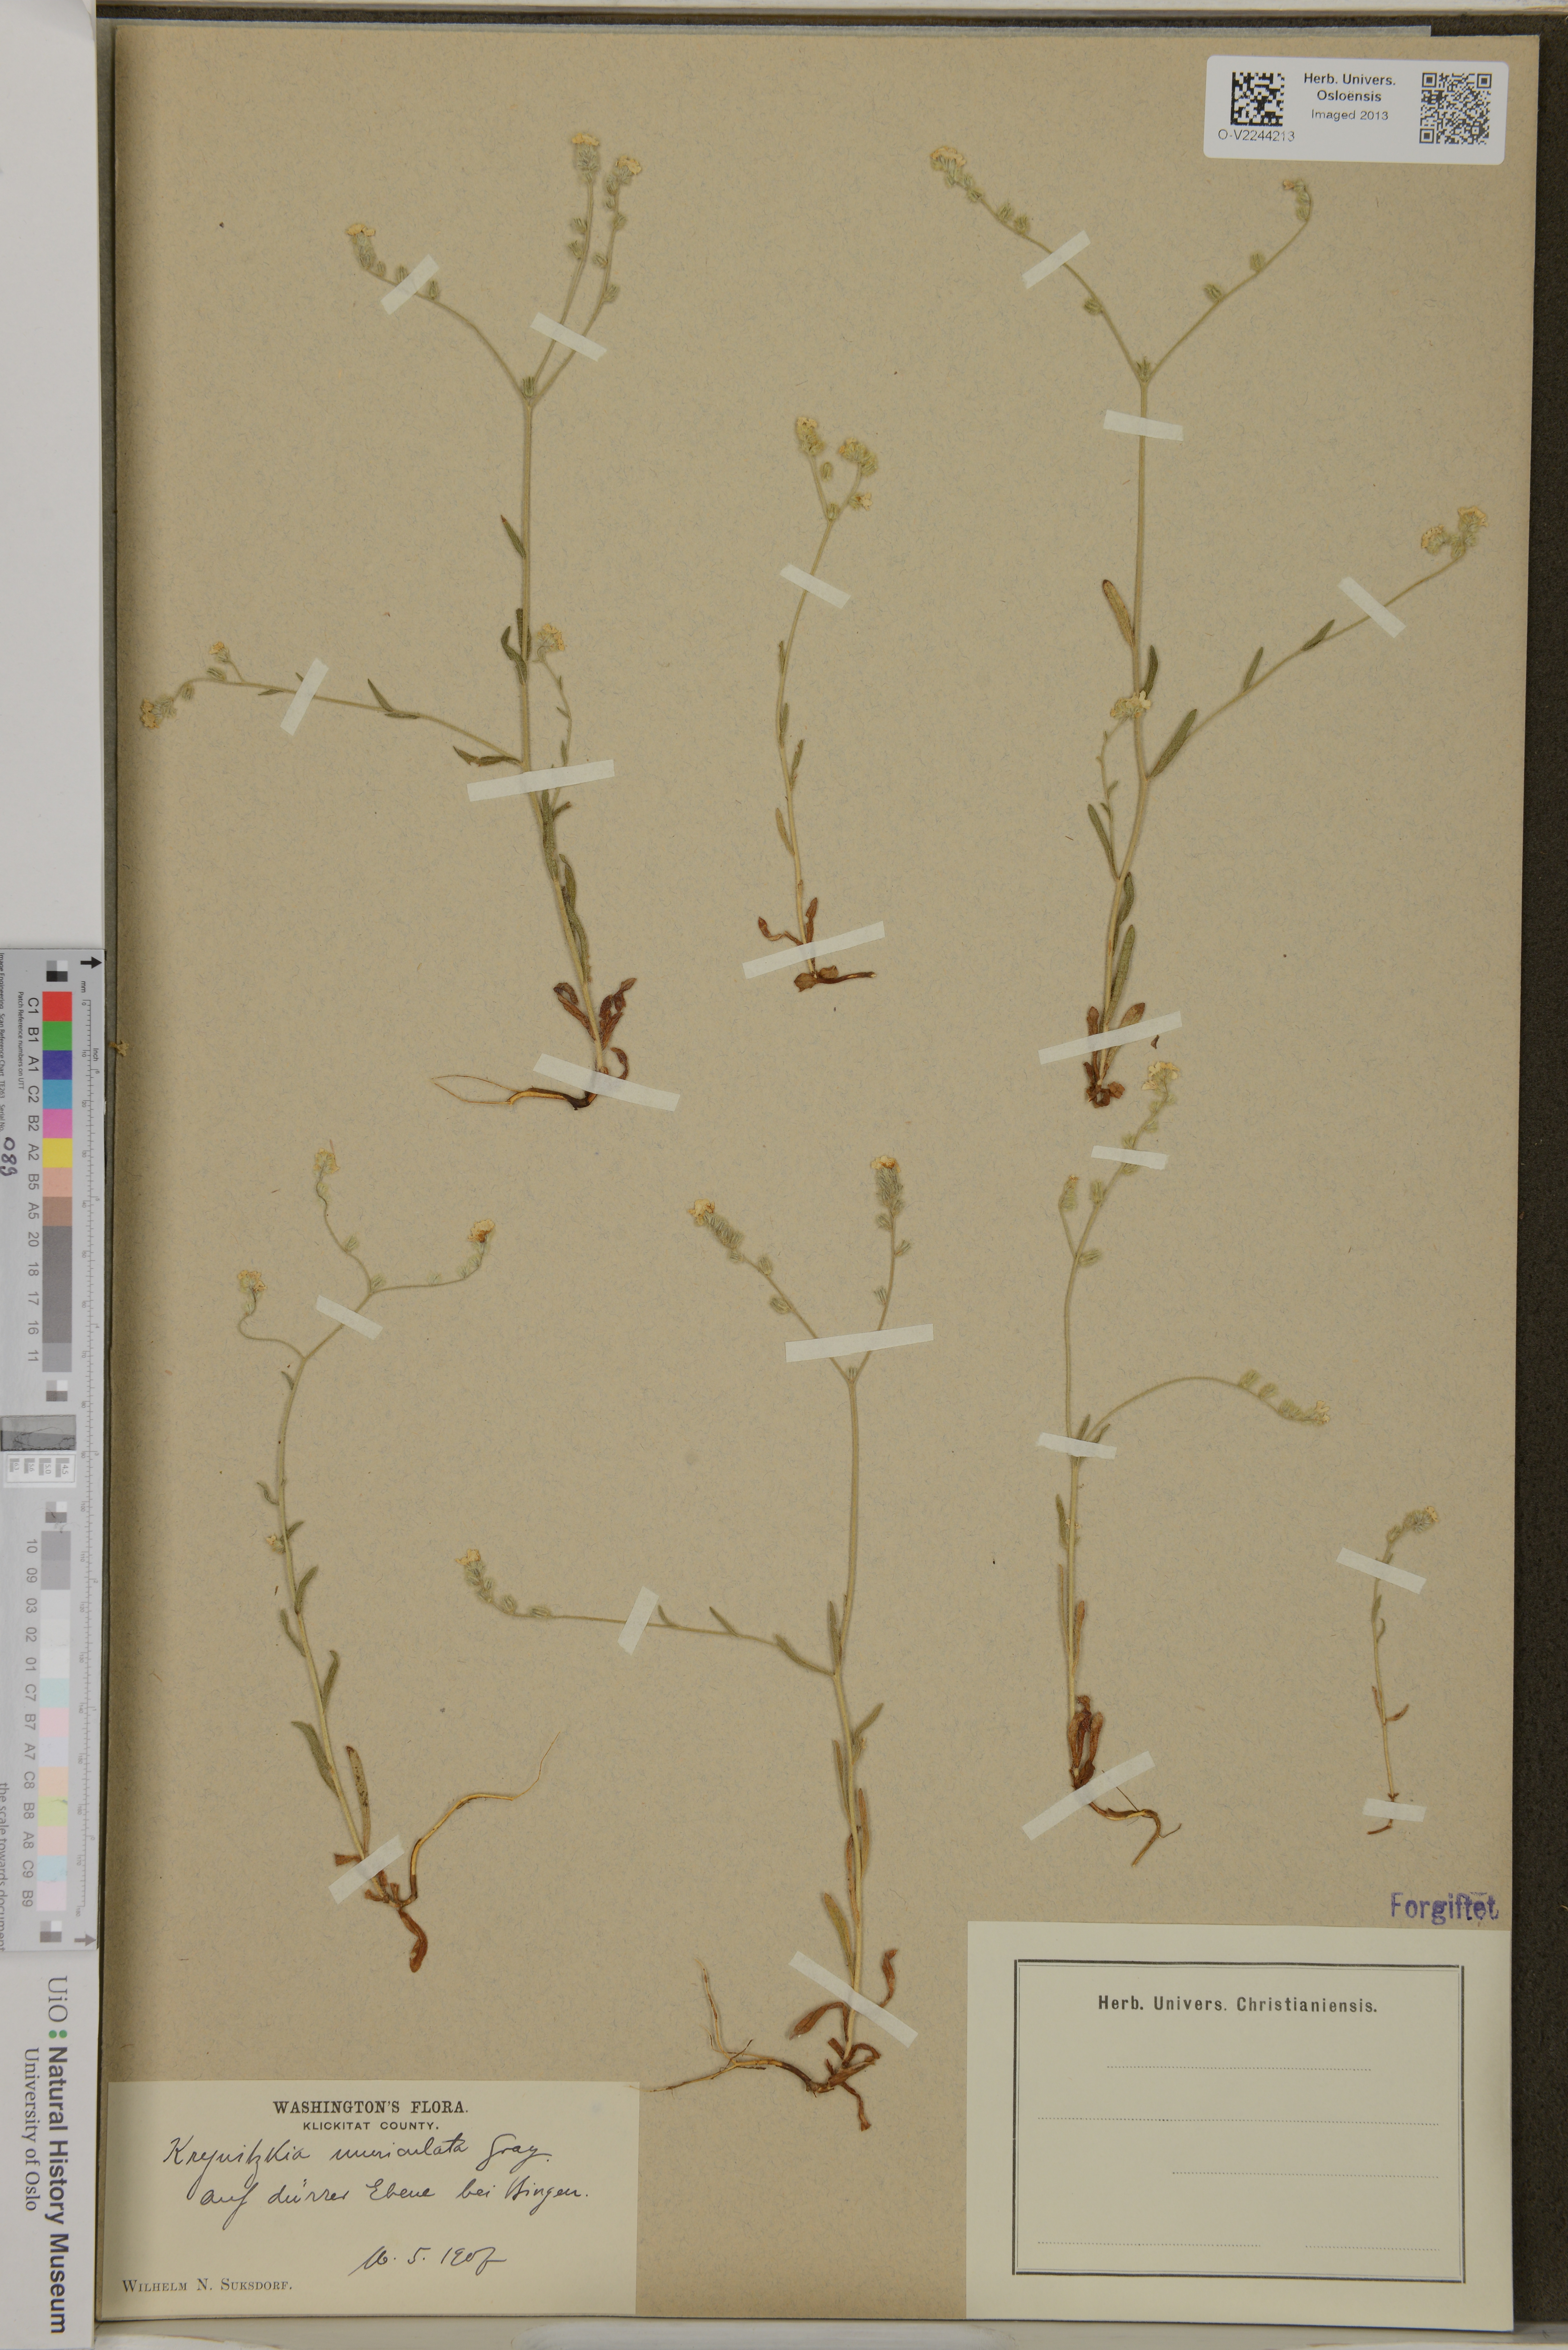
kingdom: Plantae
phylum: Tracheophyta
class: Magnoliopsida
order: Boraginales
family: Boraginaceae
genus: Cryptantha
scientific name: Cryptantha muricata
